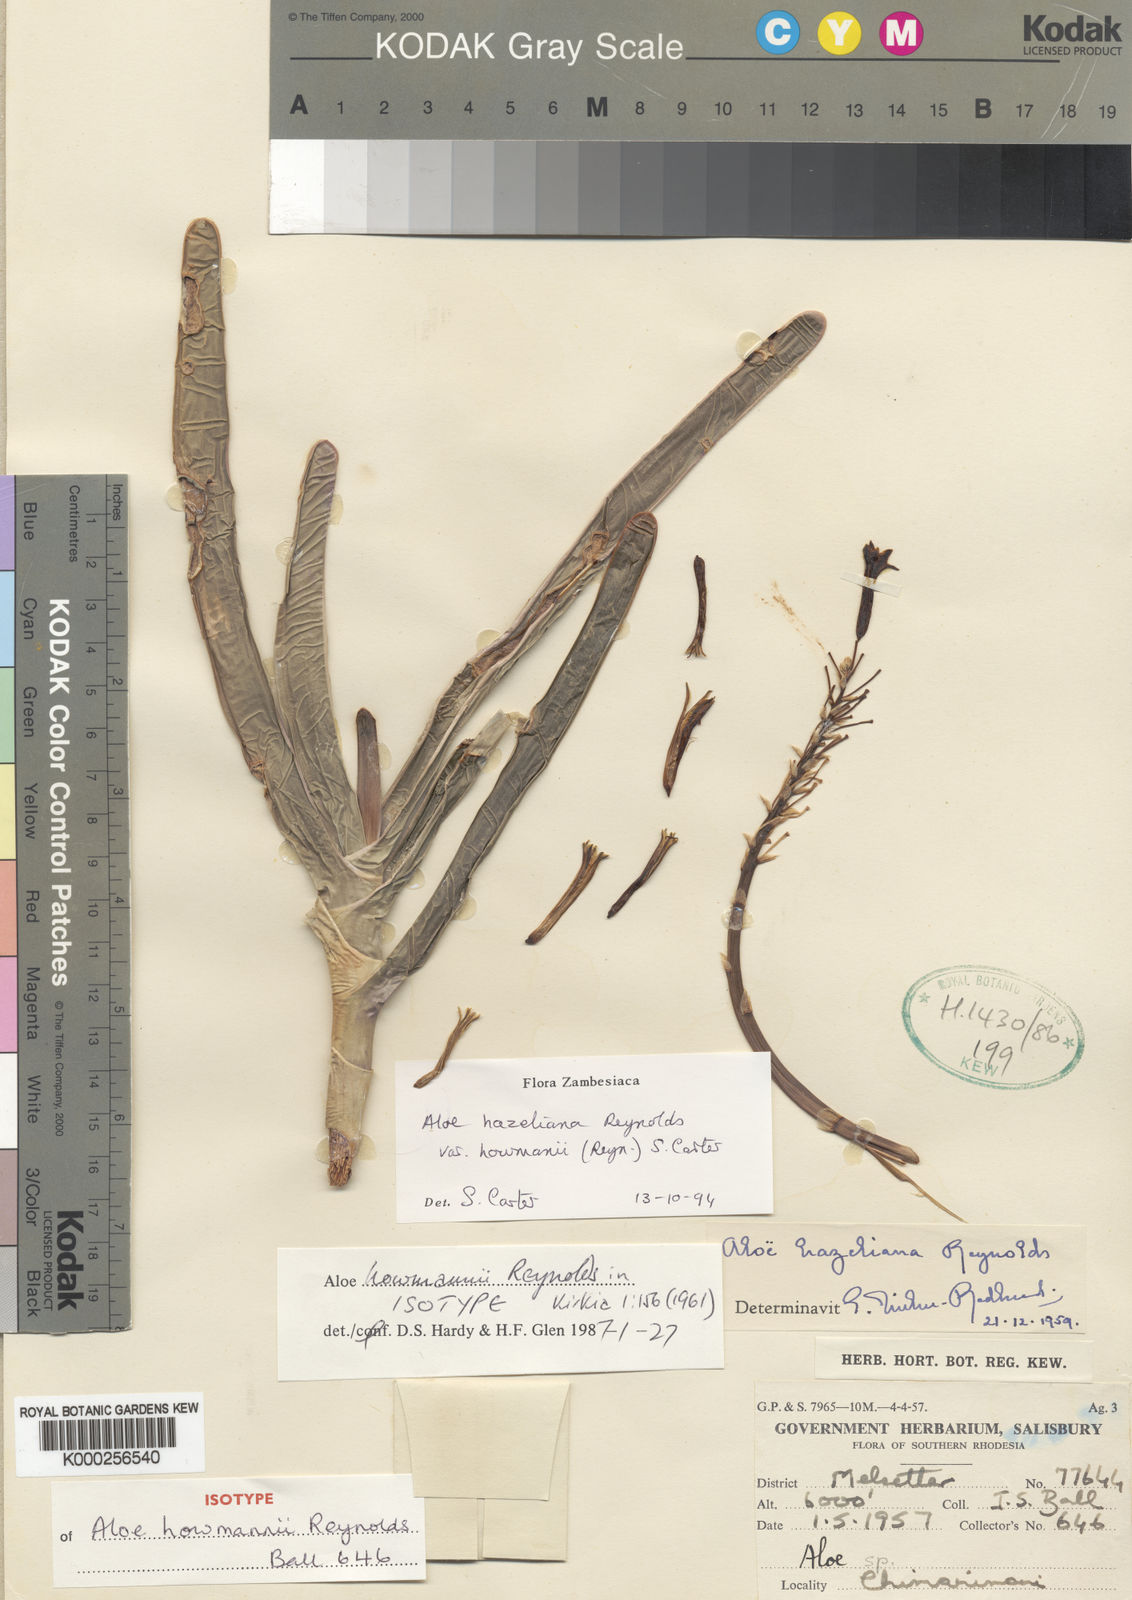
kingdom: Plantae
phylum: Tracheophyta
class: Liliopsida
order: Asparagales
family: Asphodelaceae
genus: Aloe
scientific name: Aloe hazeliana
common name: Hazel's rock aloe
